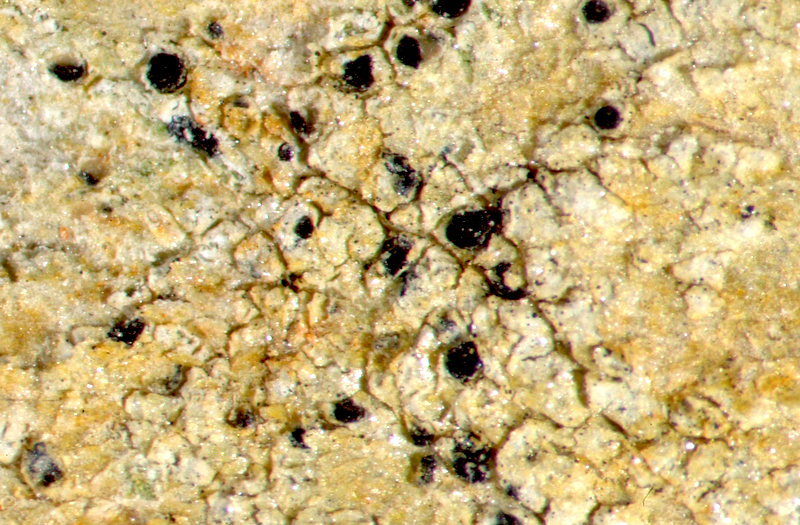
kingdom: Fungi
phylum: Ascomycota
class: Lecanoromycetes
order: Caliciales
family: Caliciaceae
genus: Buellia
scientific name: Buellia
